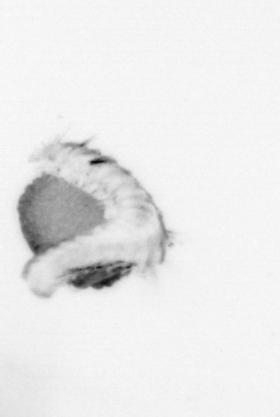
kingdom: Animalia
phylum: Annelida
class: Polychaeta
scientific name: Polychaeta
